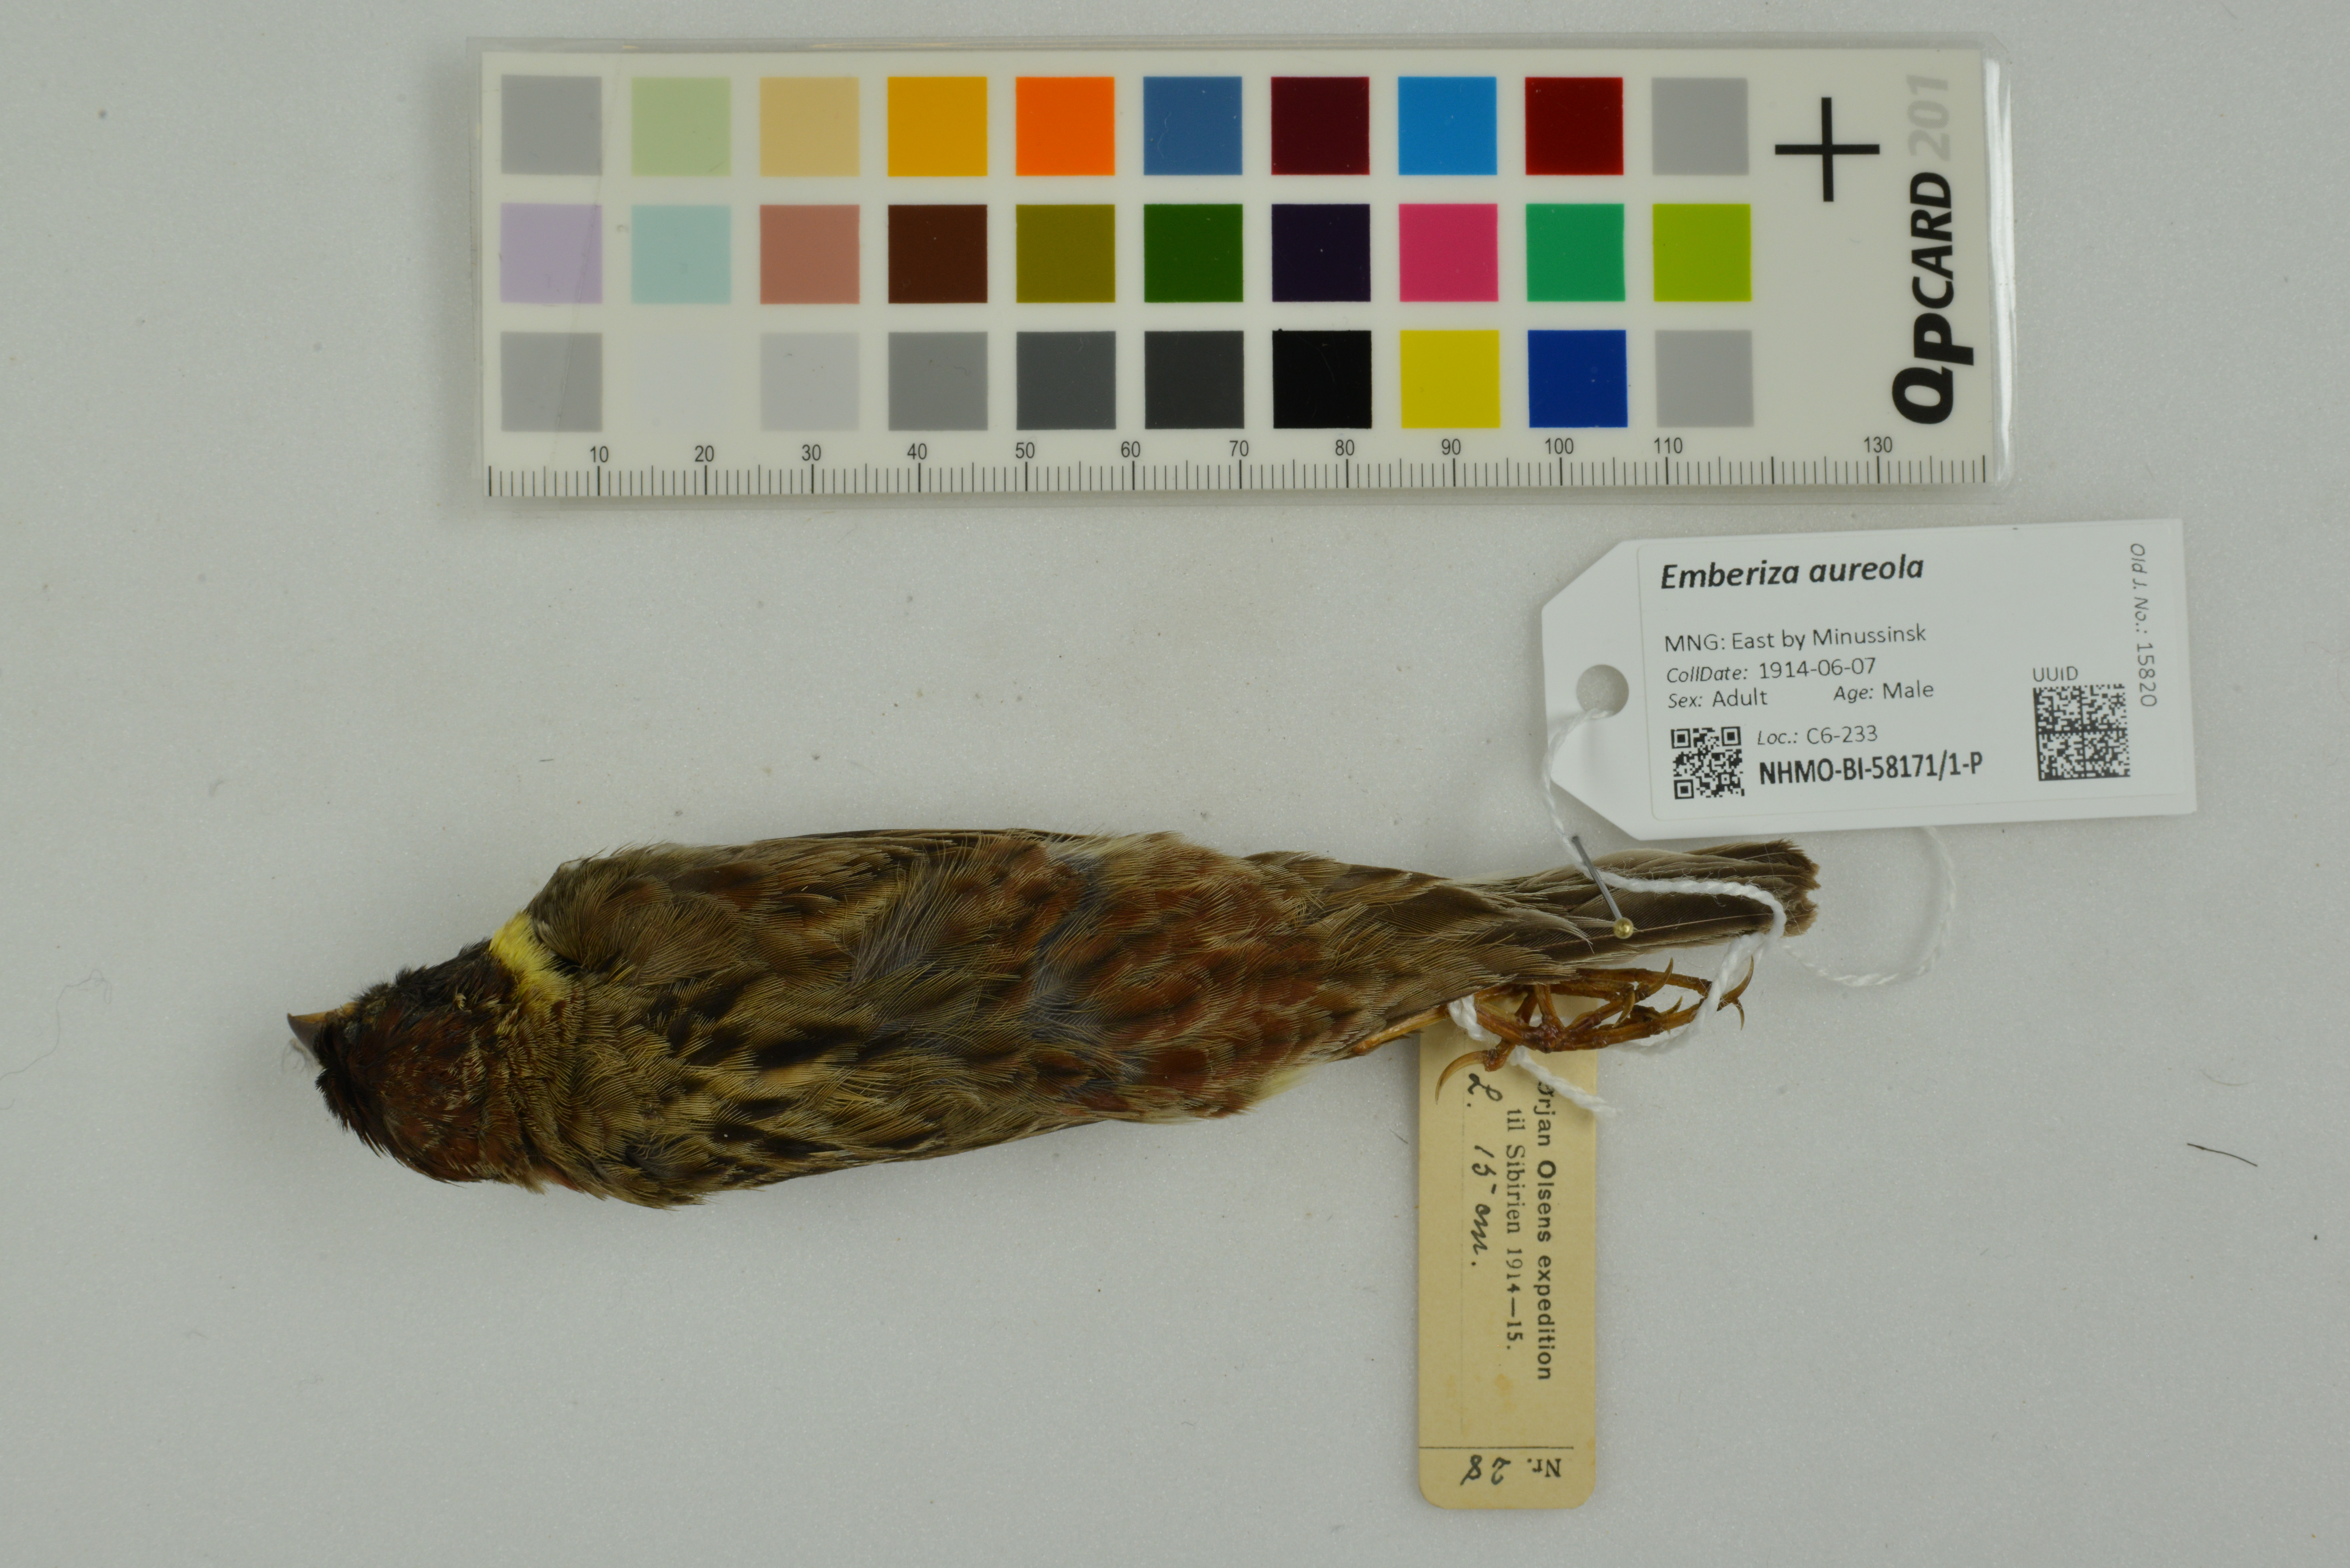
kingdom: Animalia
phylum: Chordata
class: Aves
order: Passeriformes
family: Emberizidae
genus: Emberiza
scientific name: Emberiza aureola
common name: Yellow-breasted bunting
